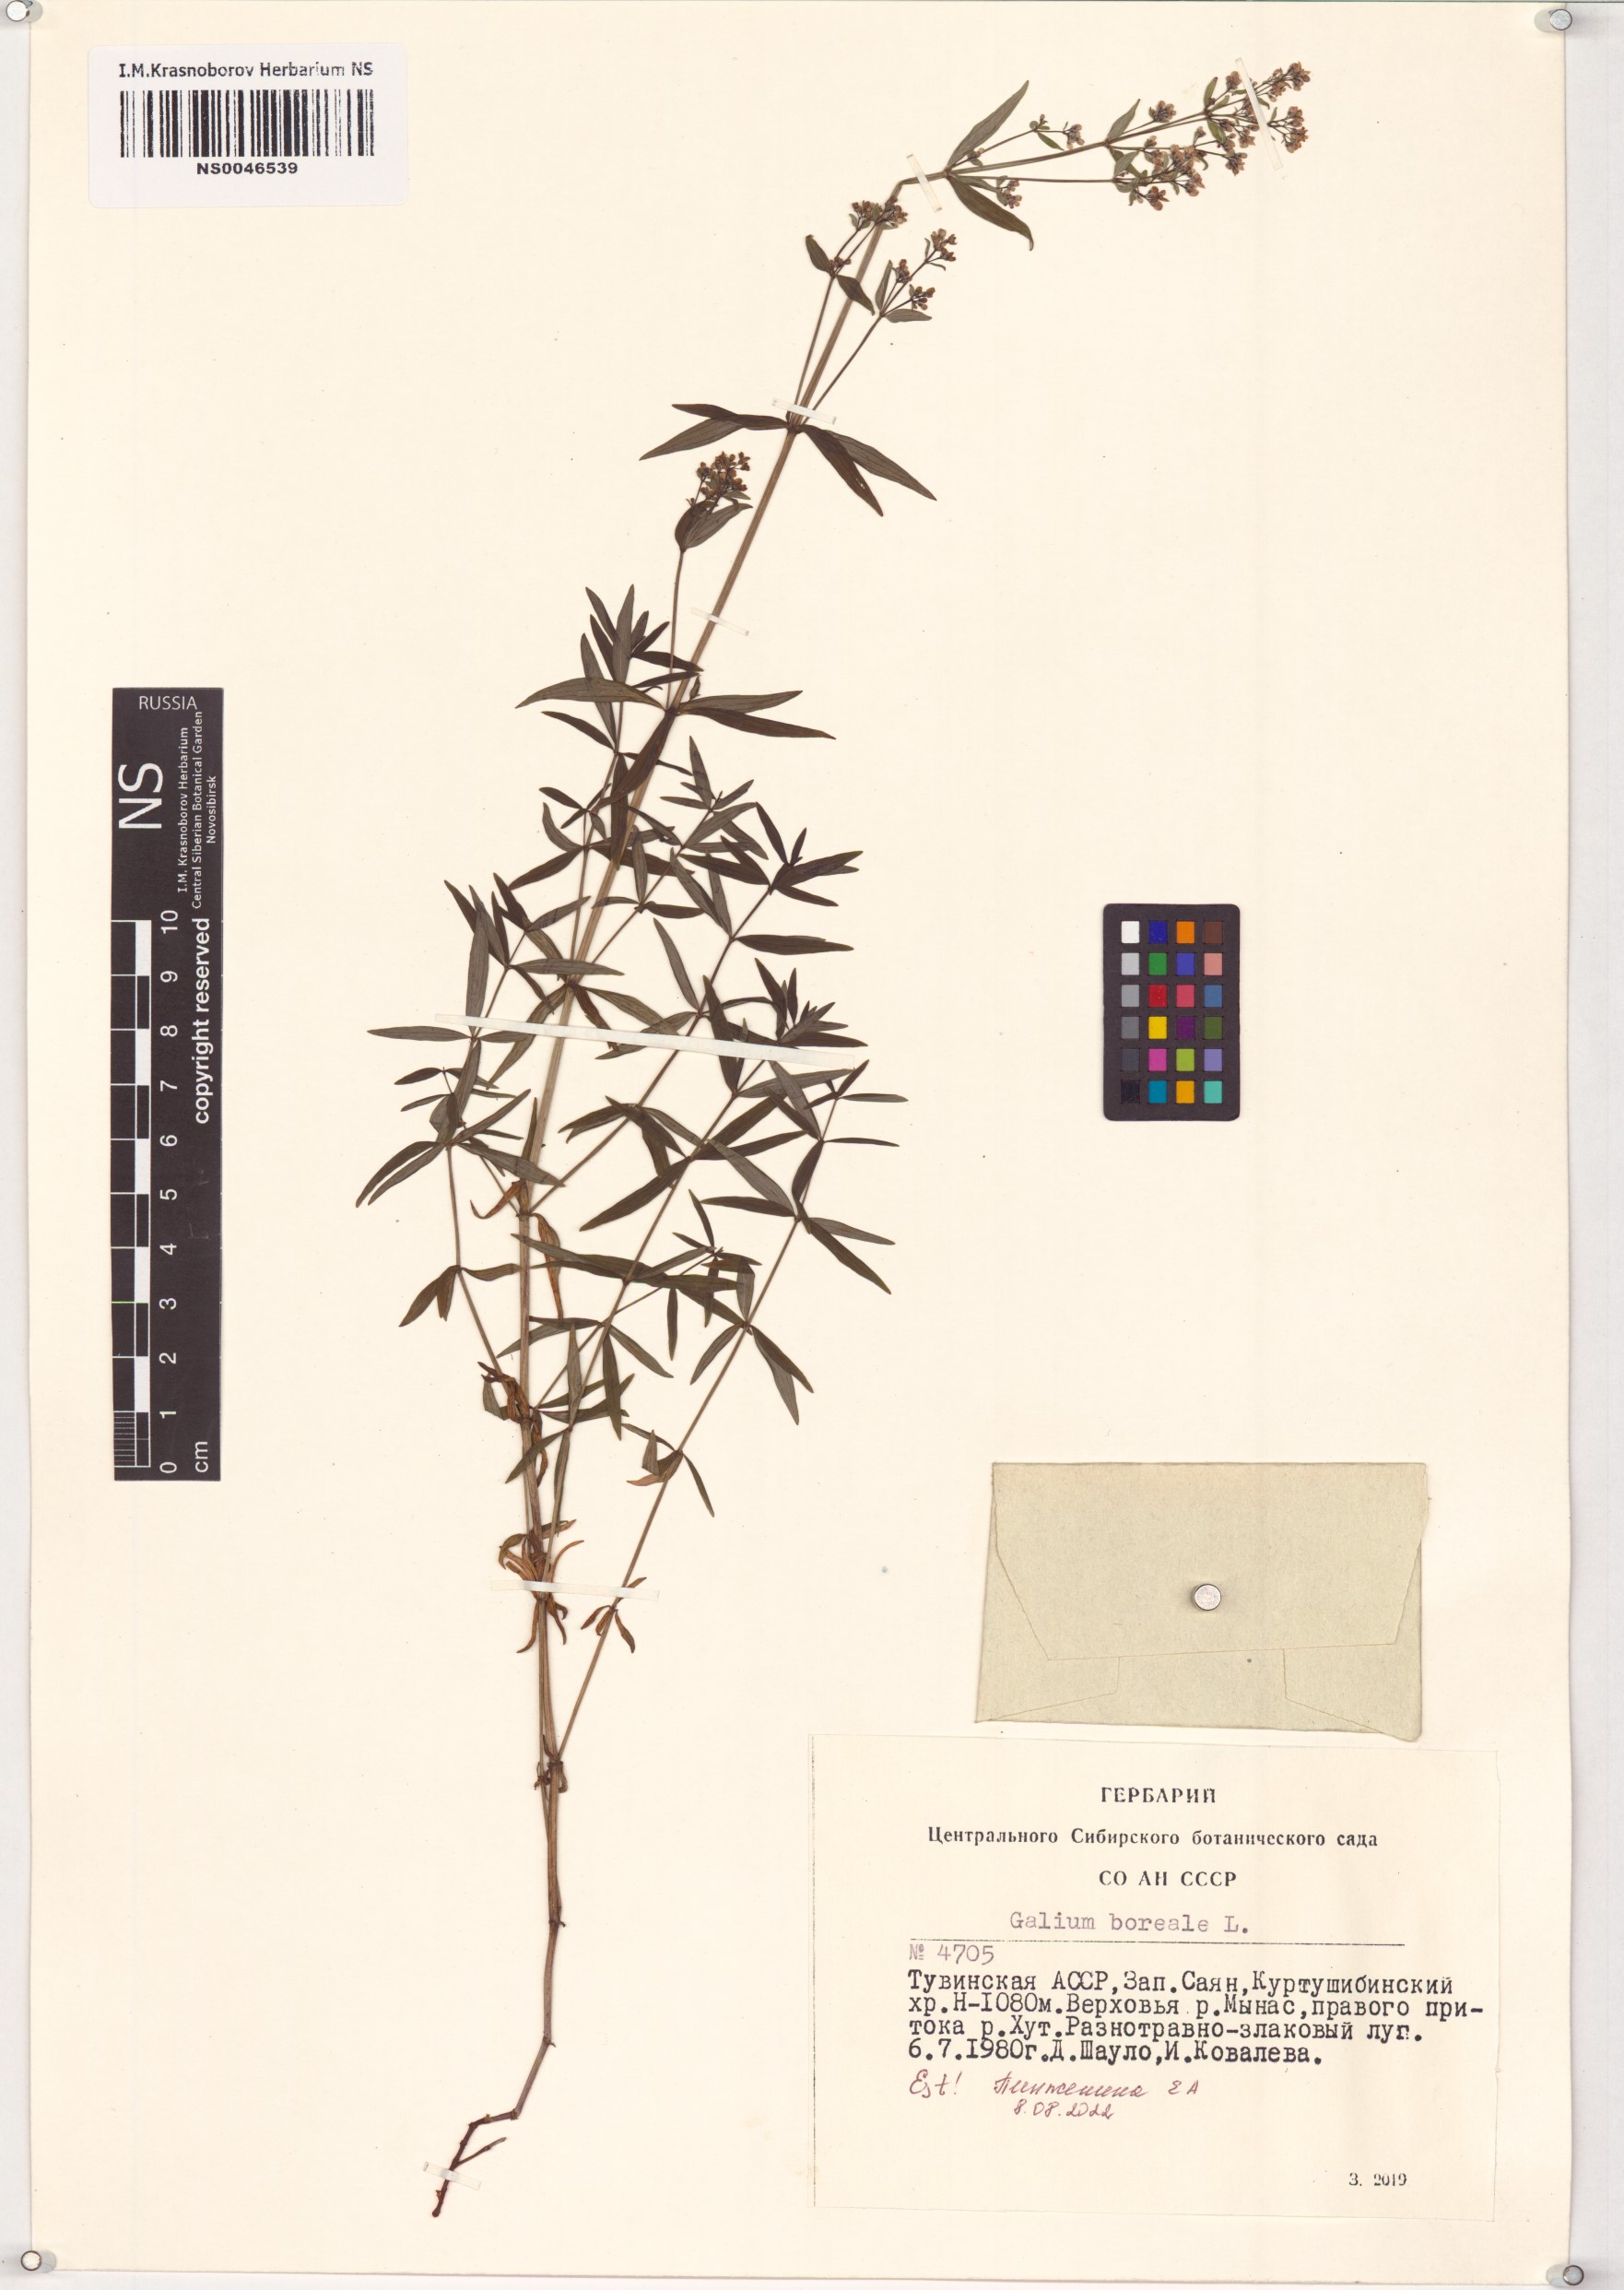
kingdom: Plantae
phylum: Tracheophyta
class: Magnoliopsida
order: Gentianales
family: Rubiaceae
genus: Galium
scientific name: Galium boreale
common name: Northern bedstraw
